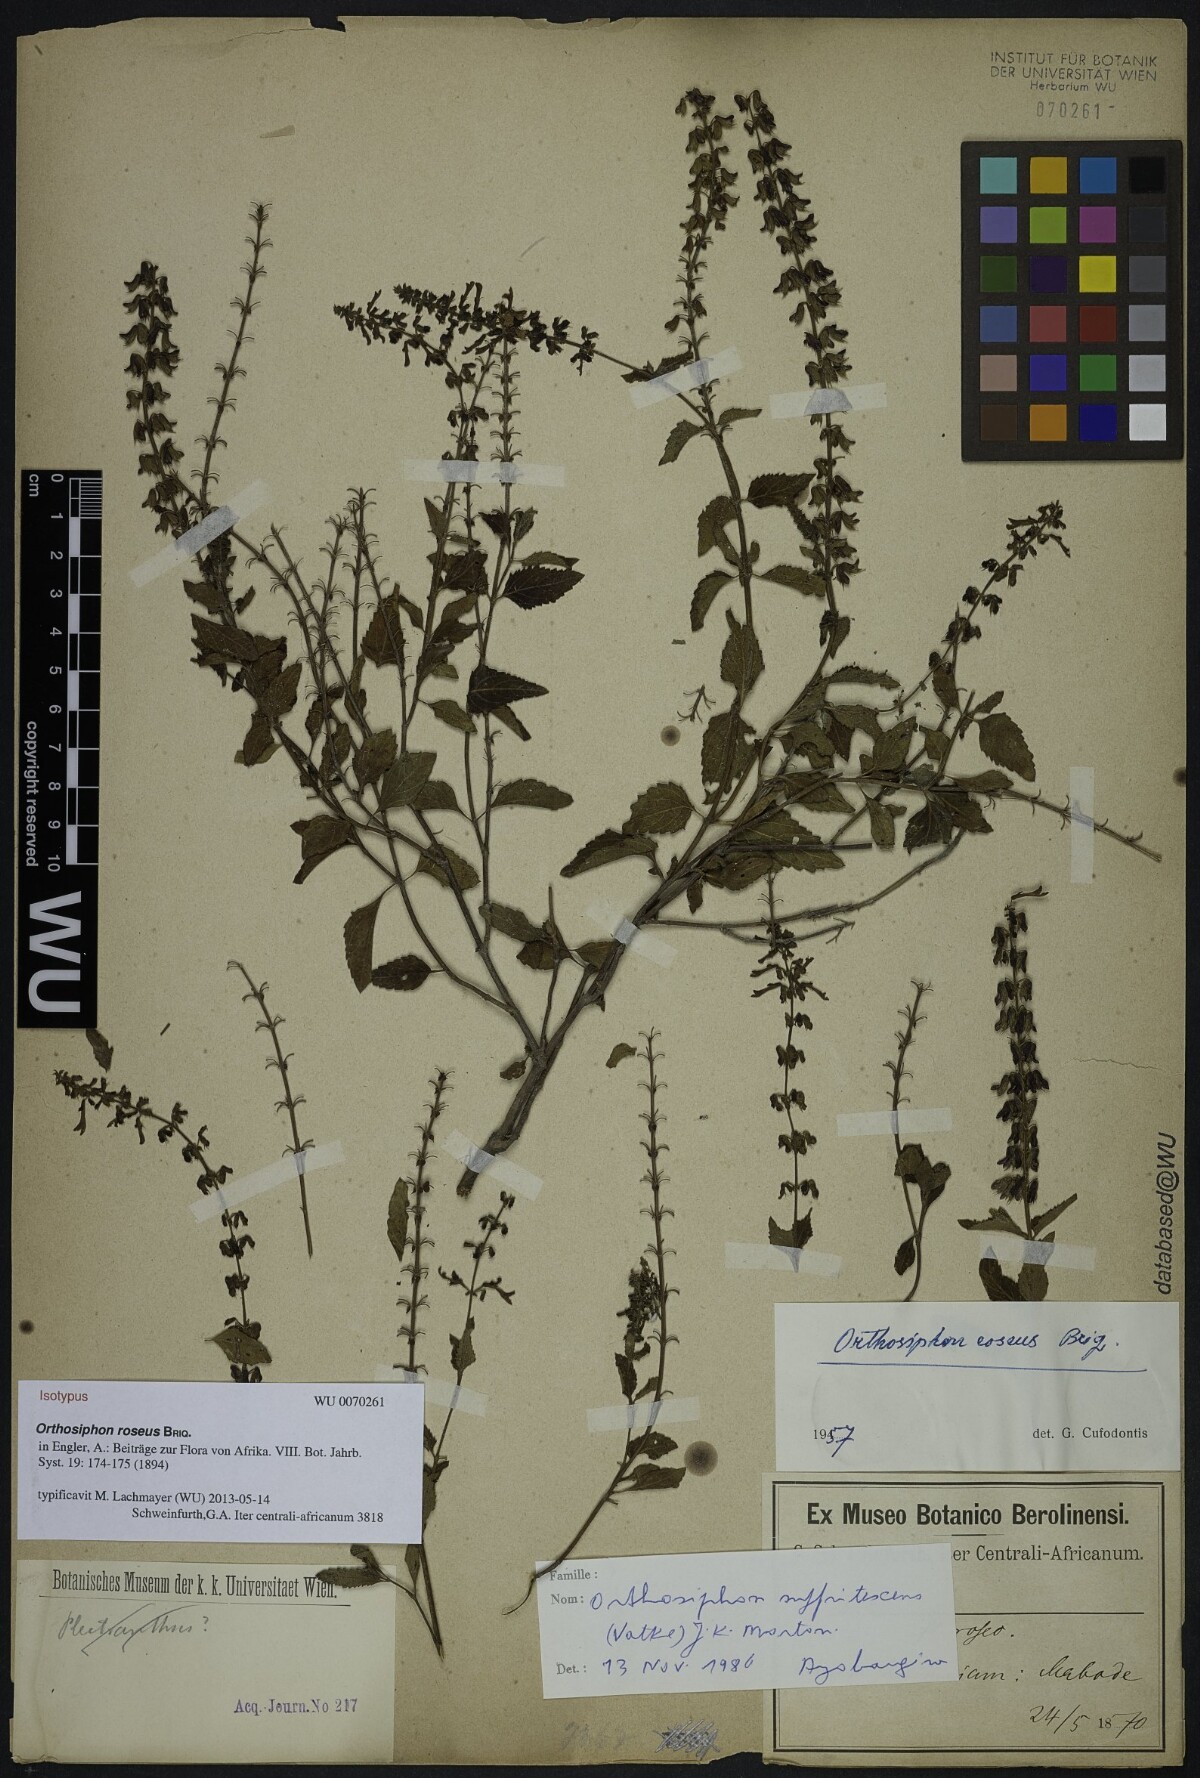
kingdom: Plantae
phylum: Tracheophyta
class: Magnoliopsida
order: Lamiales
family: Lamiaceae
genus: Orthosiphon
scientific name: Orthosiphon thymiflorus
